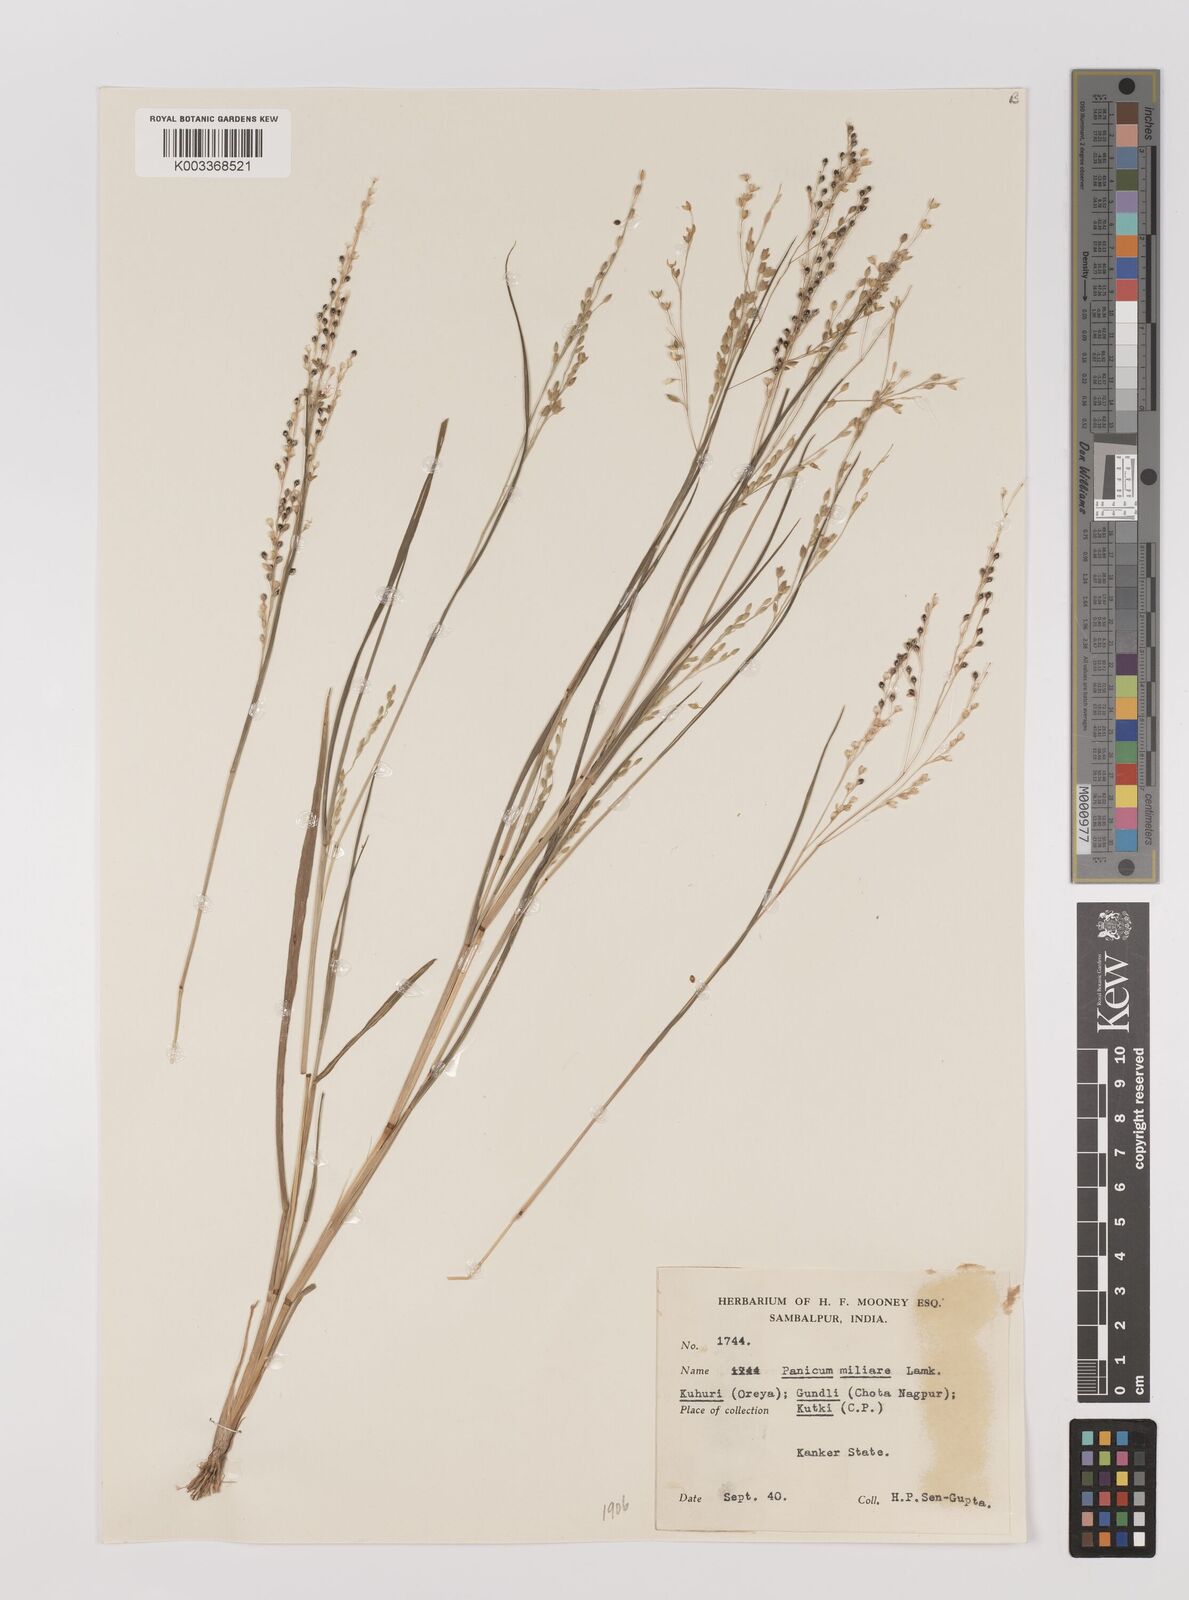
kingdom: Plantae
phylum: Tracheophyta
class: Liliopsida
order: Poales
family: Poaceae
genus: Panicum
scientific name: Panicum sumatrense
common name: Little millet
